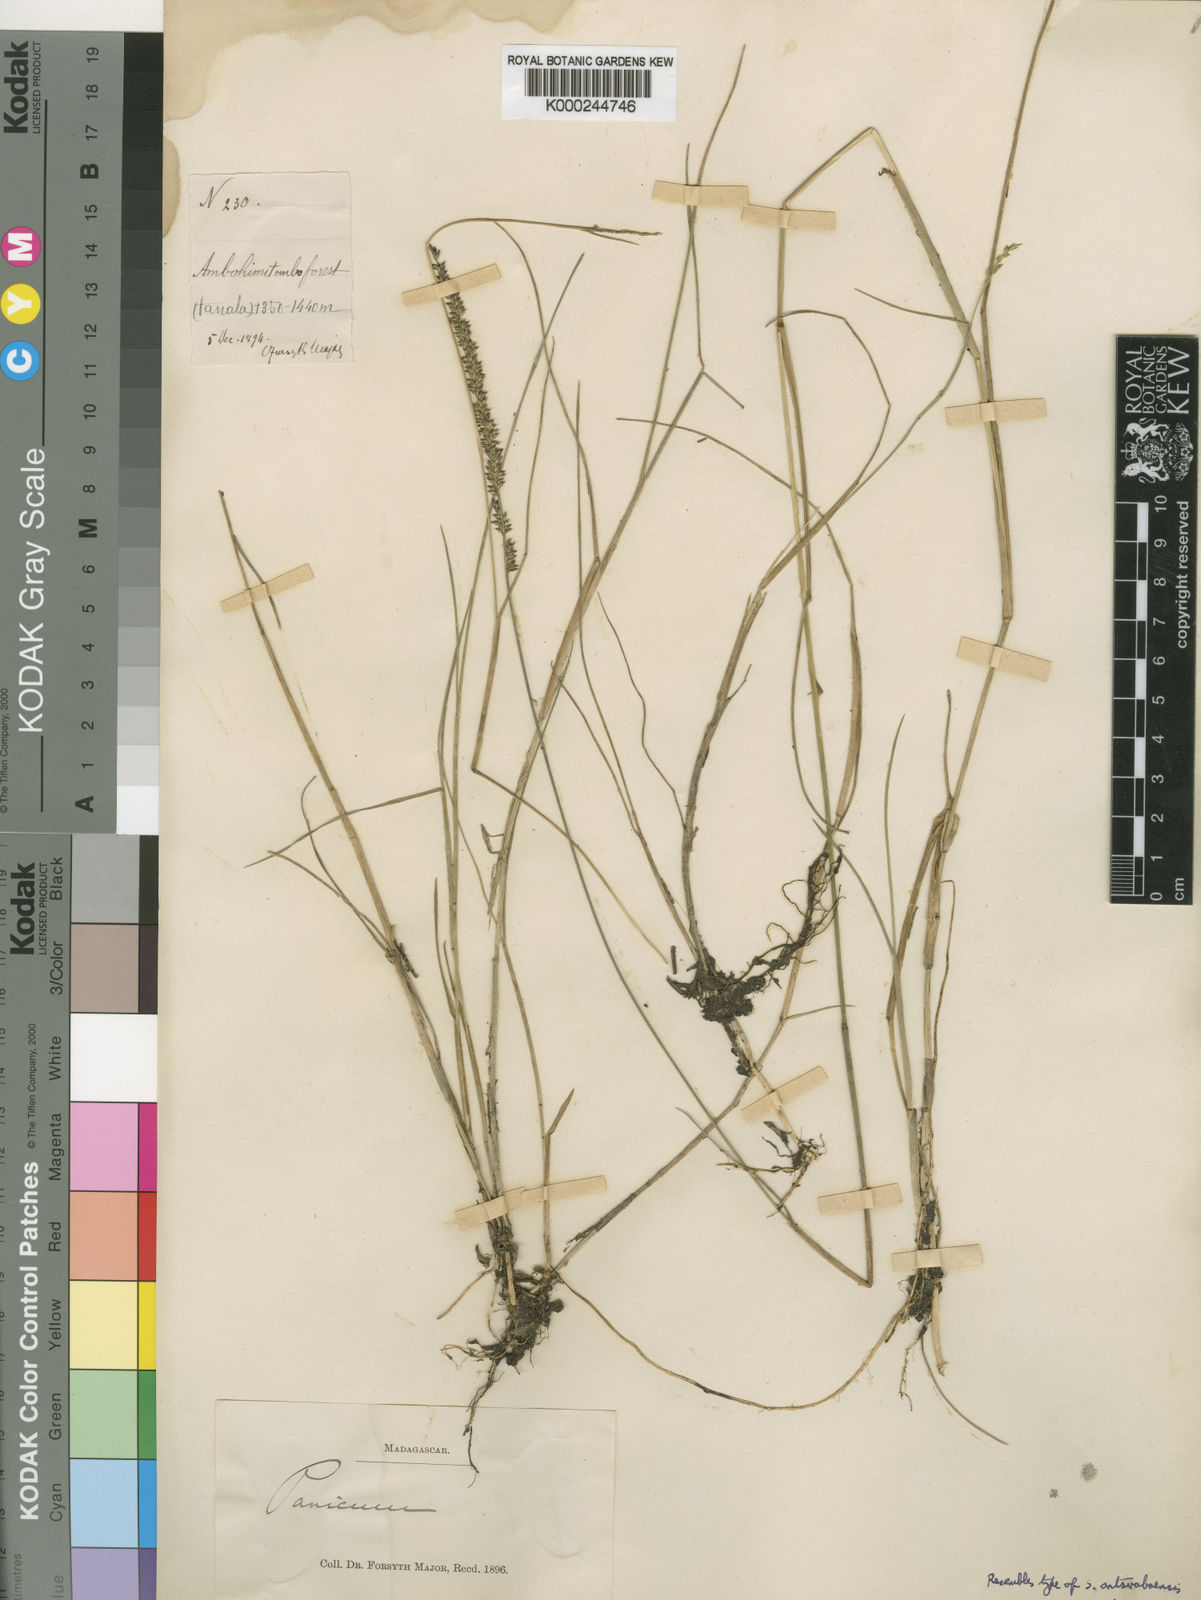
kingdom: Plantae
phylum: Tracheophyta
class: Liliopsida
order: Poales
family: Poaceae
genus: Sacciolepis
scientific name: Sacciolepis chevalieri
